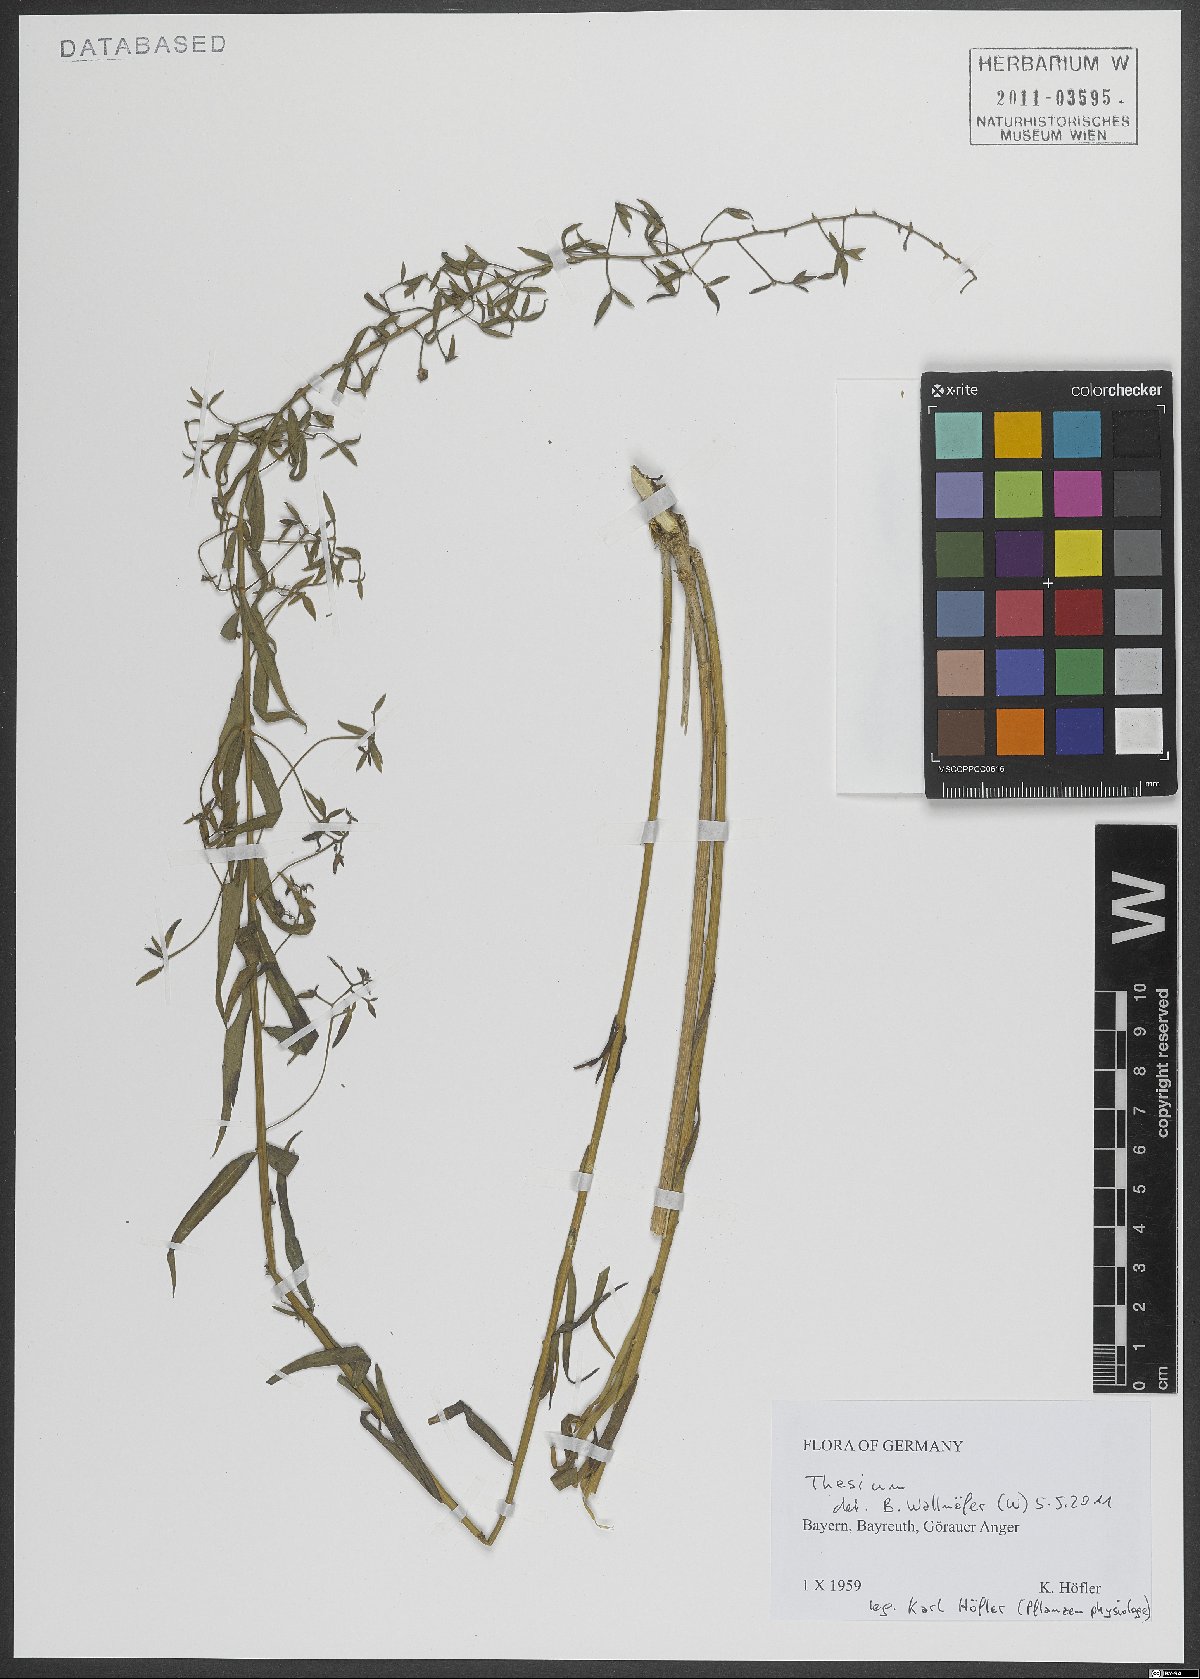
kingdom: Plantae
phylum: Tracheophyta
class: Magnoliopsida
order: Santalales
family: Thesiaceae
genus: Thesium
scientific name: Thesium
